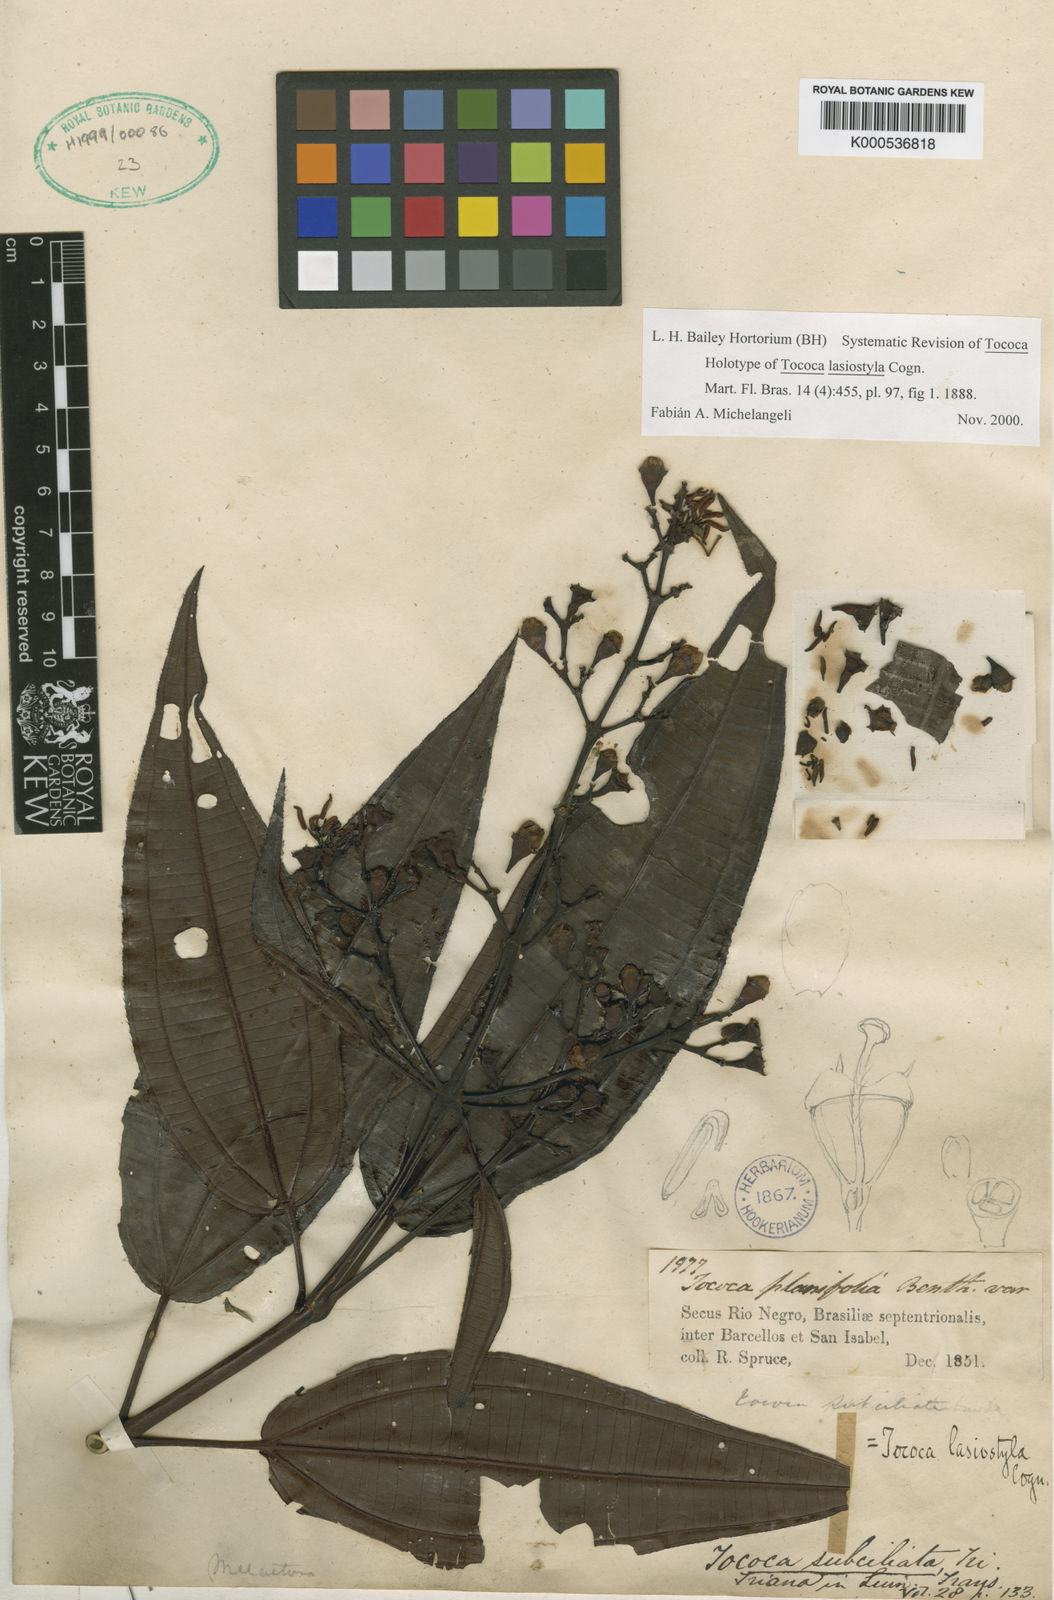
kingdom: Plantae
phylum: Tracheophyta
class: Magnoliopsida
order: Myrtales
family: Melastomataceae
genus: Miconia
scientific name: Miconia subciliata
